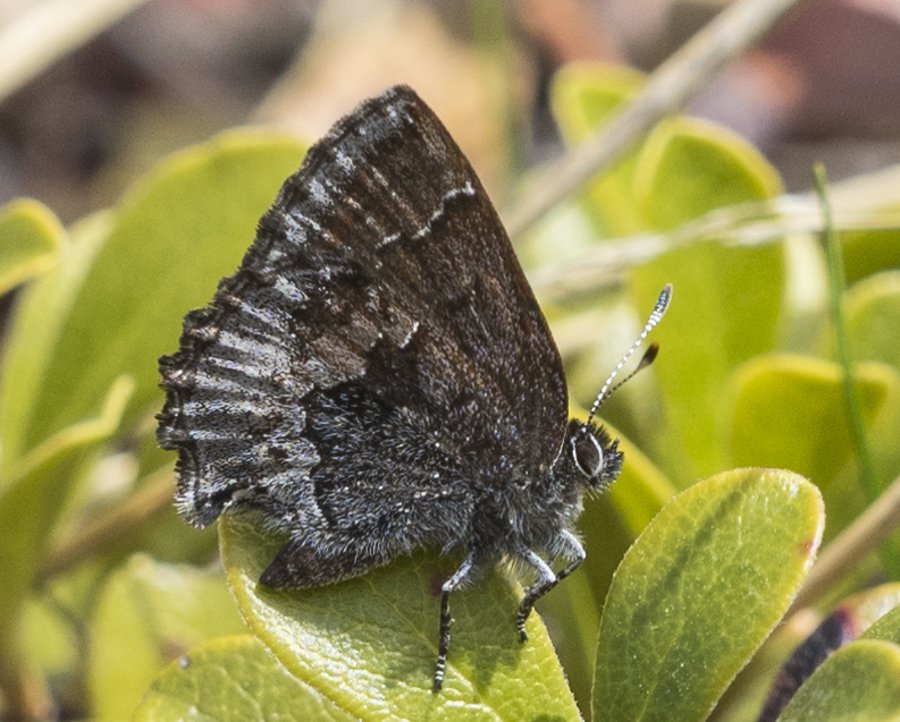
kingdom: Animalia
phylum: Arthropoda
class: Insecta
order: Lepidoptera
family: Lycaenidae
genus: Callophrys
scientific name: Callophrys polios
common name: Hoary Elfin
